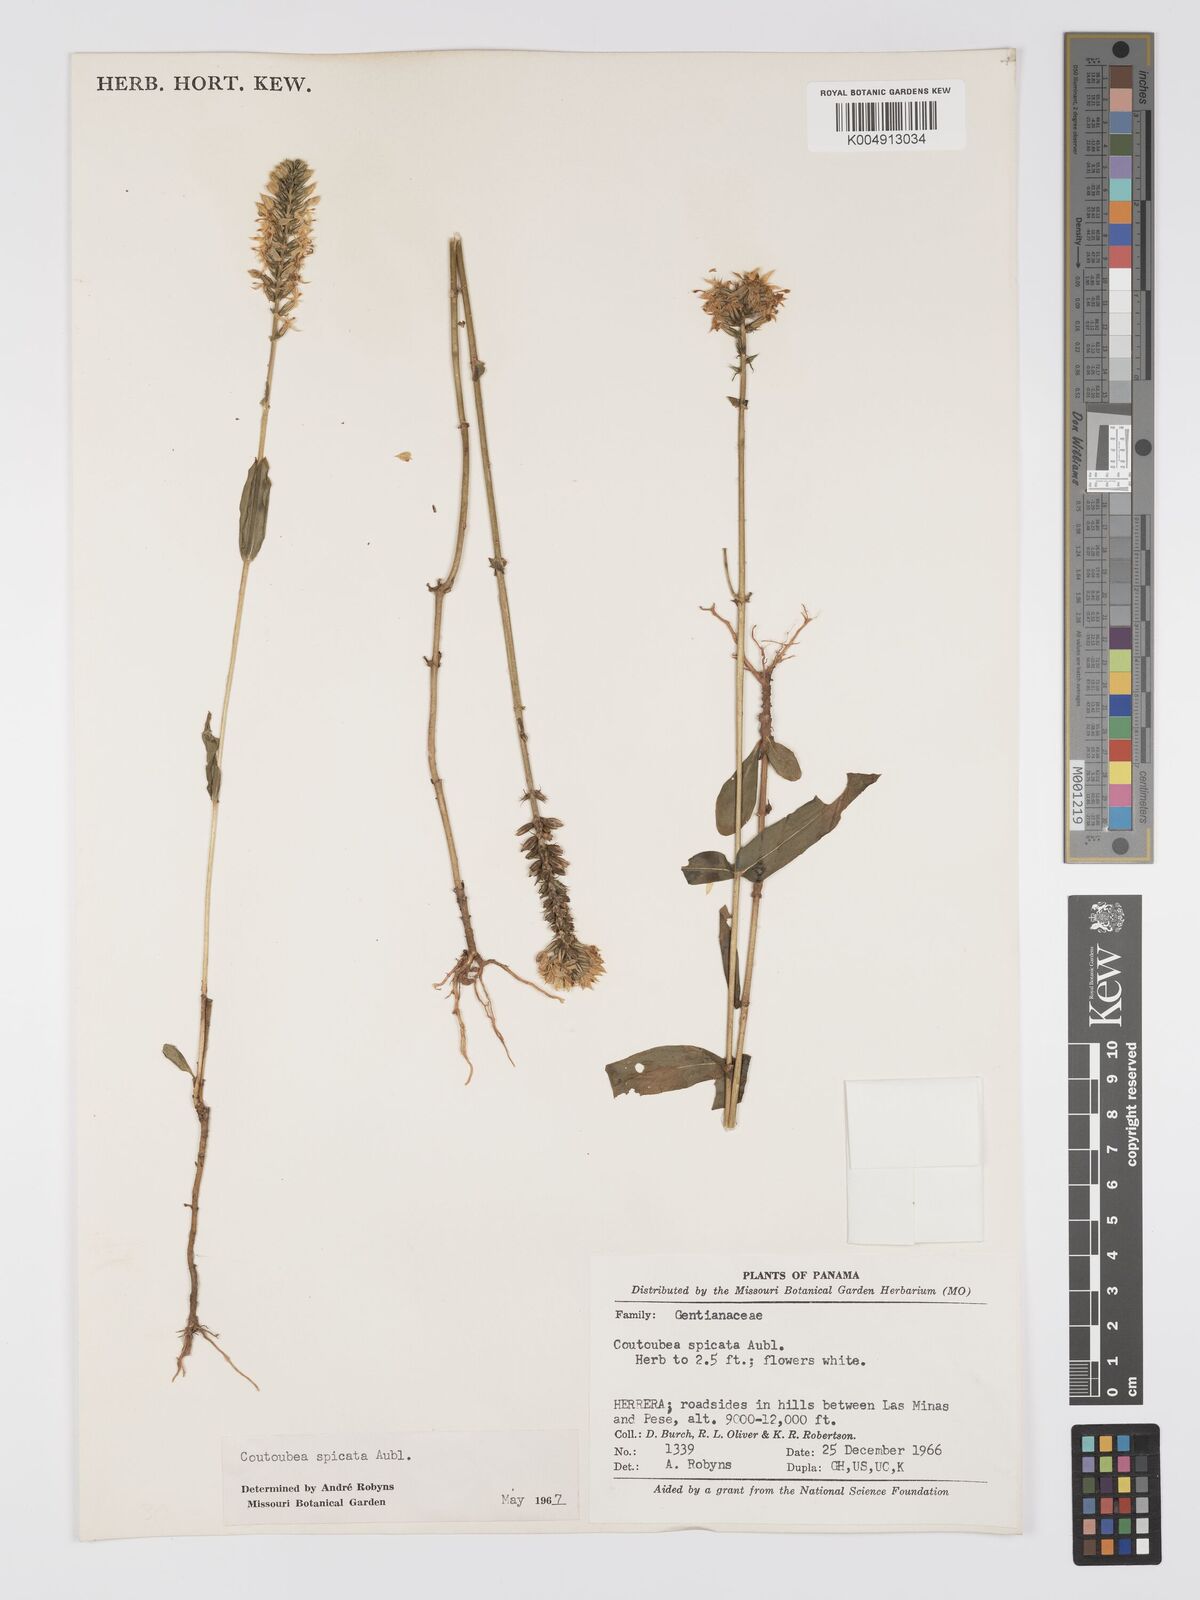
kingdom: Plantae
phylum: Tracheophyta
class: Magnoliopsida
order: Gentianales
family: Gentianaceae
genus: Coutoubea
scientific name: Coutoubea spicata
